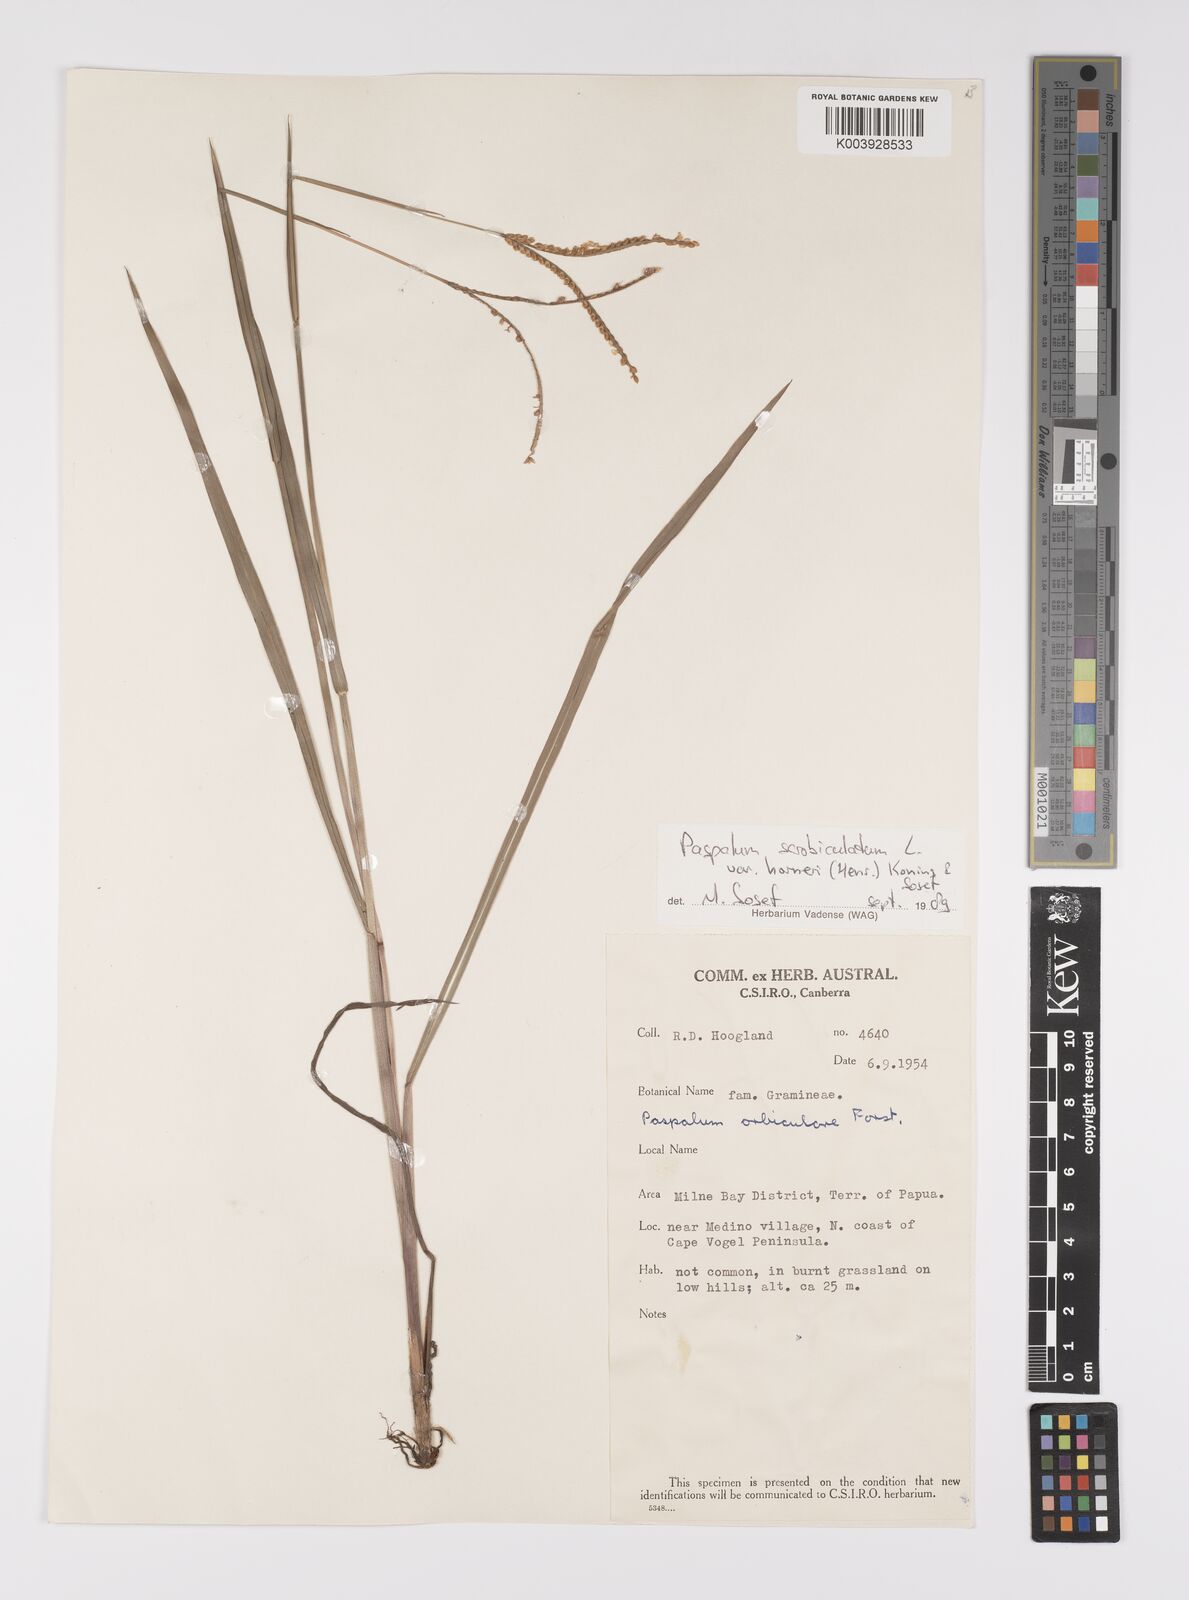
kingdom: Plantae
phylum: Tracheophyta
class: Liliopsida
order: Poales
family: Poaceae
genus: Paspalum
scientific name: Paspalum scrobiculatum
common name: Kodo millet
